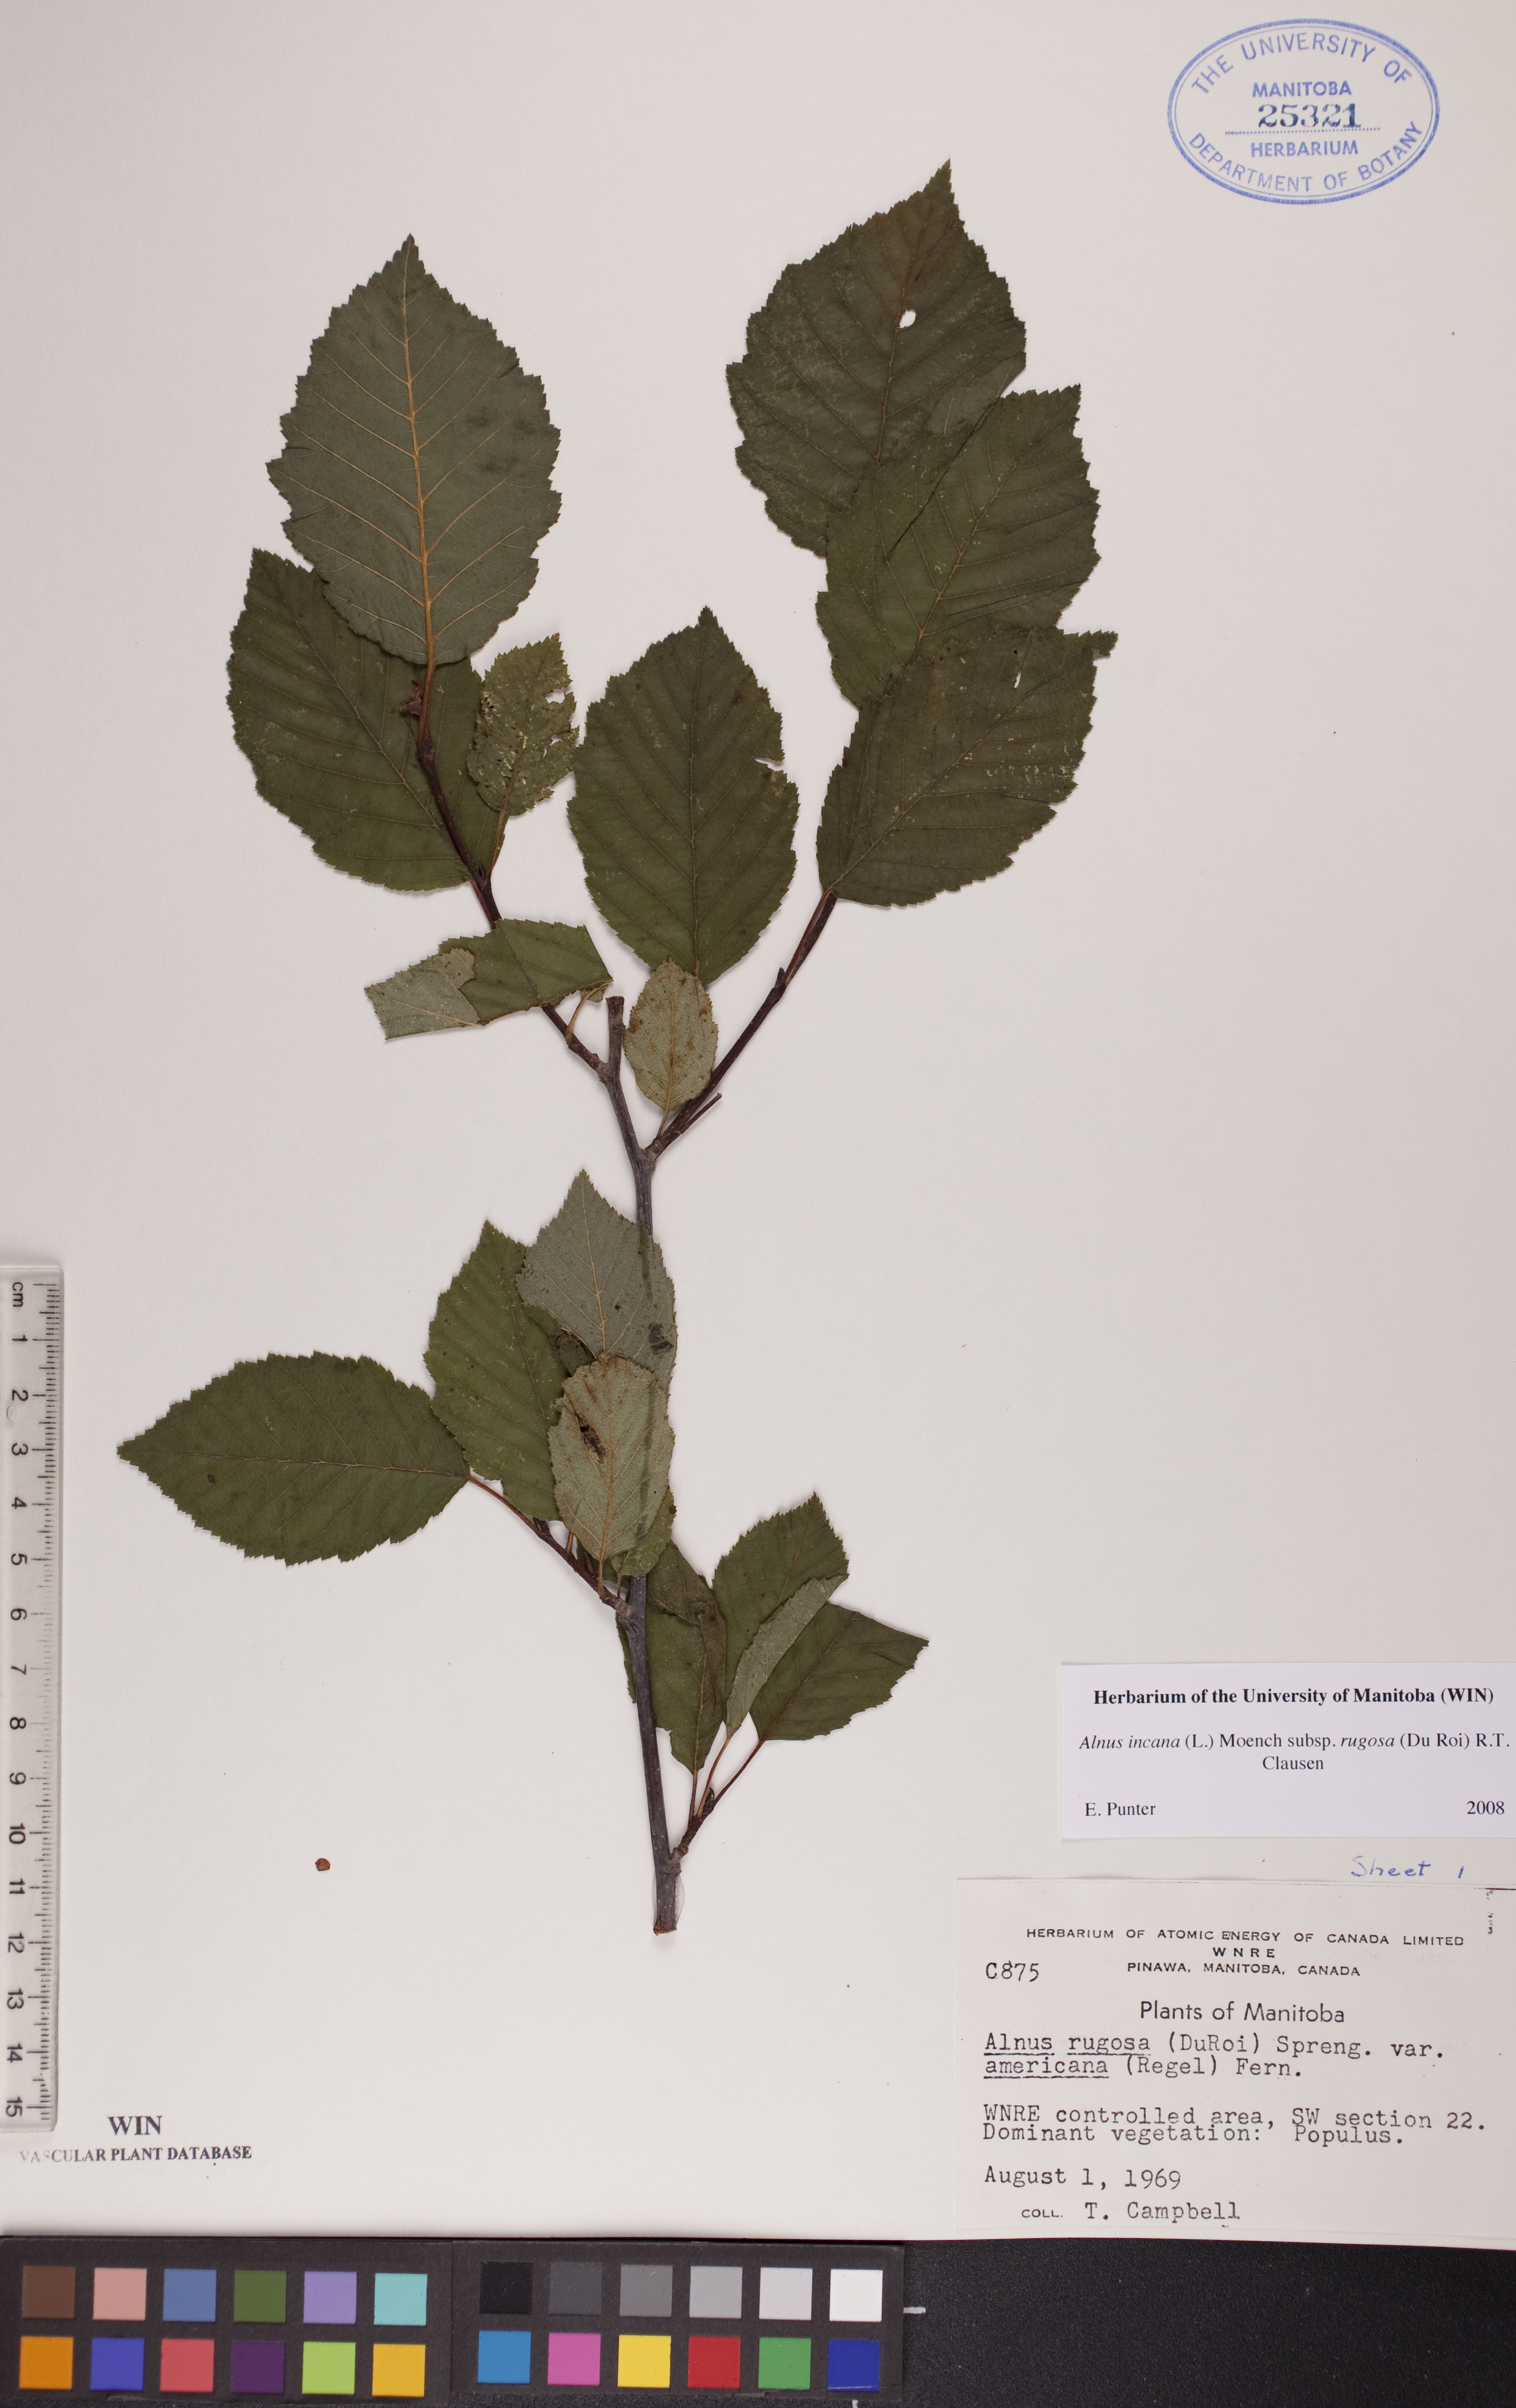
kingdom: Plantae
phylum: Tracheophyta
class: Magnoliopsida
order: Fagales
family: Betulaceae
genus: Alnus
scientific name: Alnus incana
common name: Grey alder
